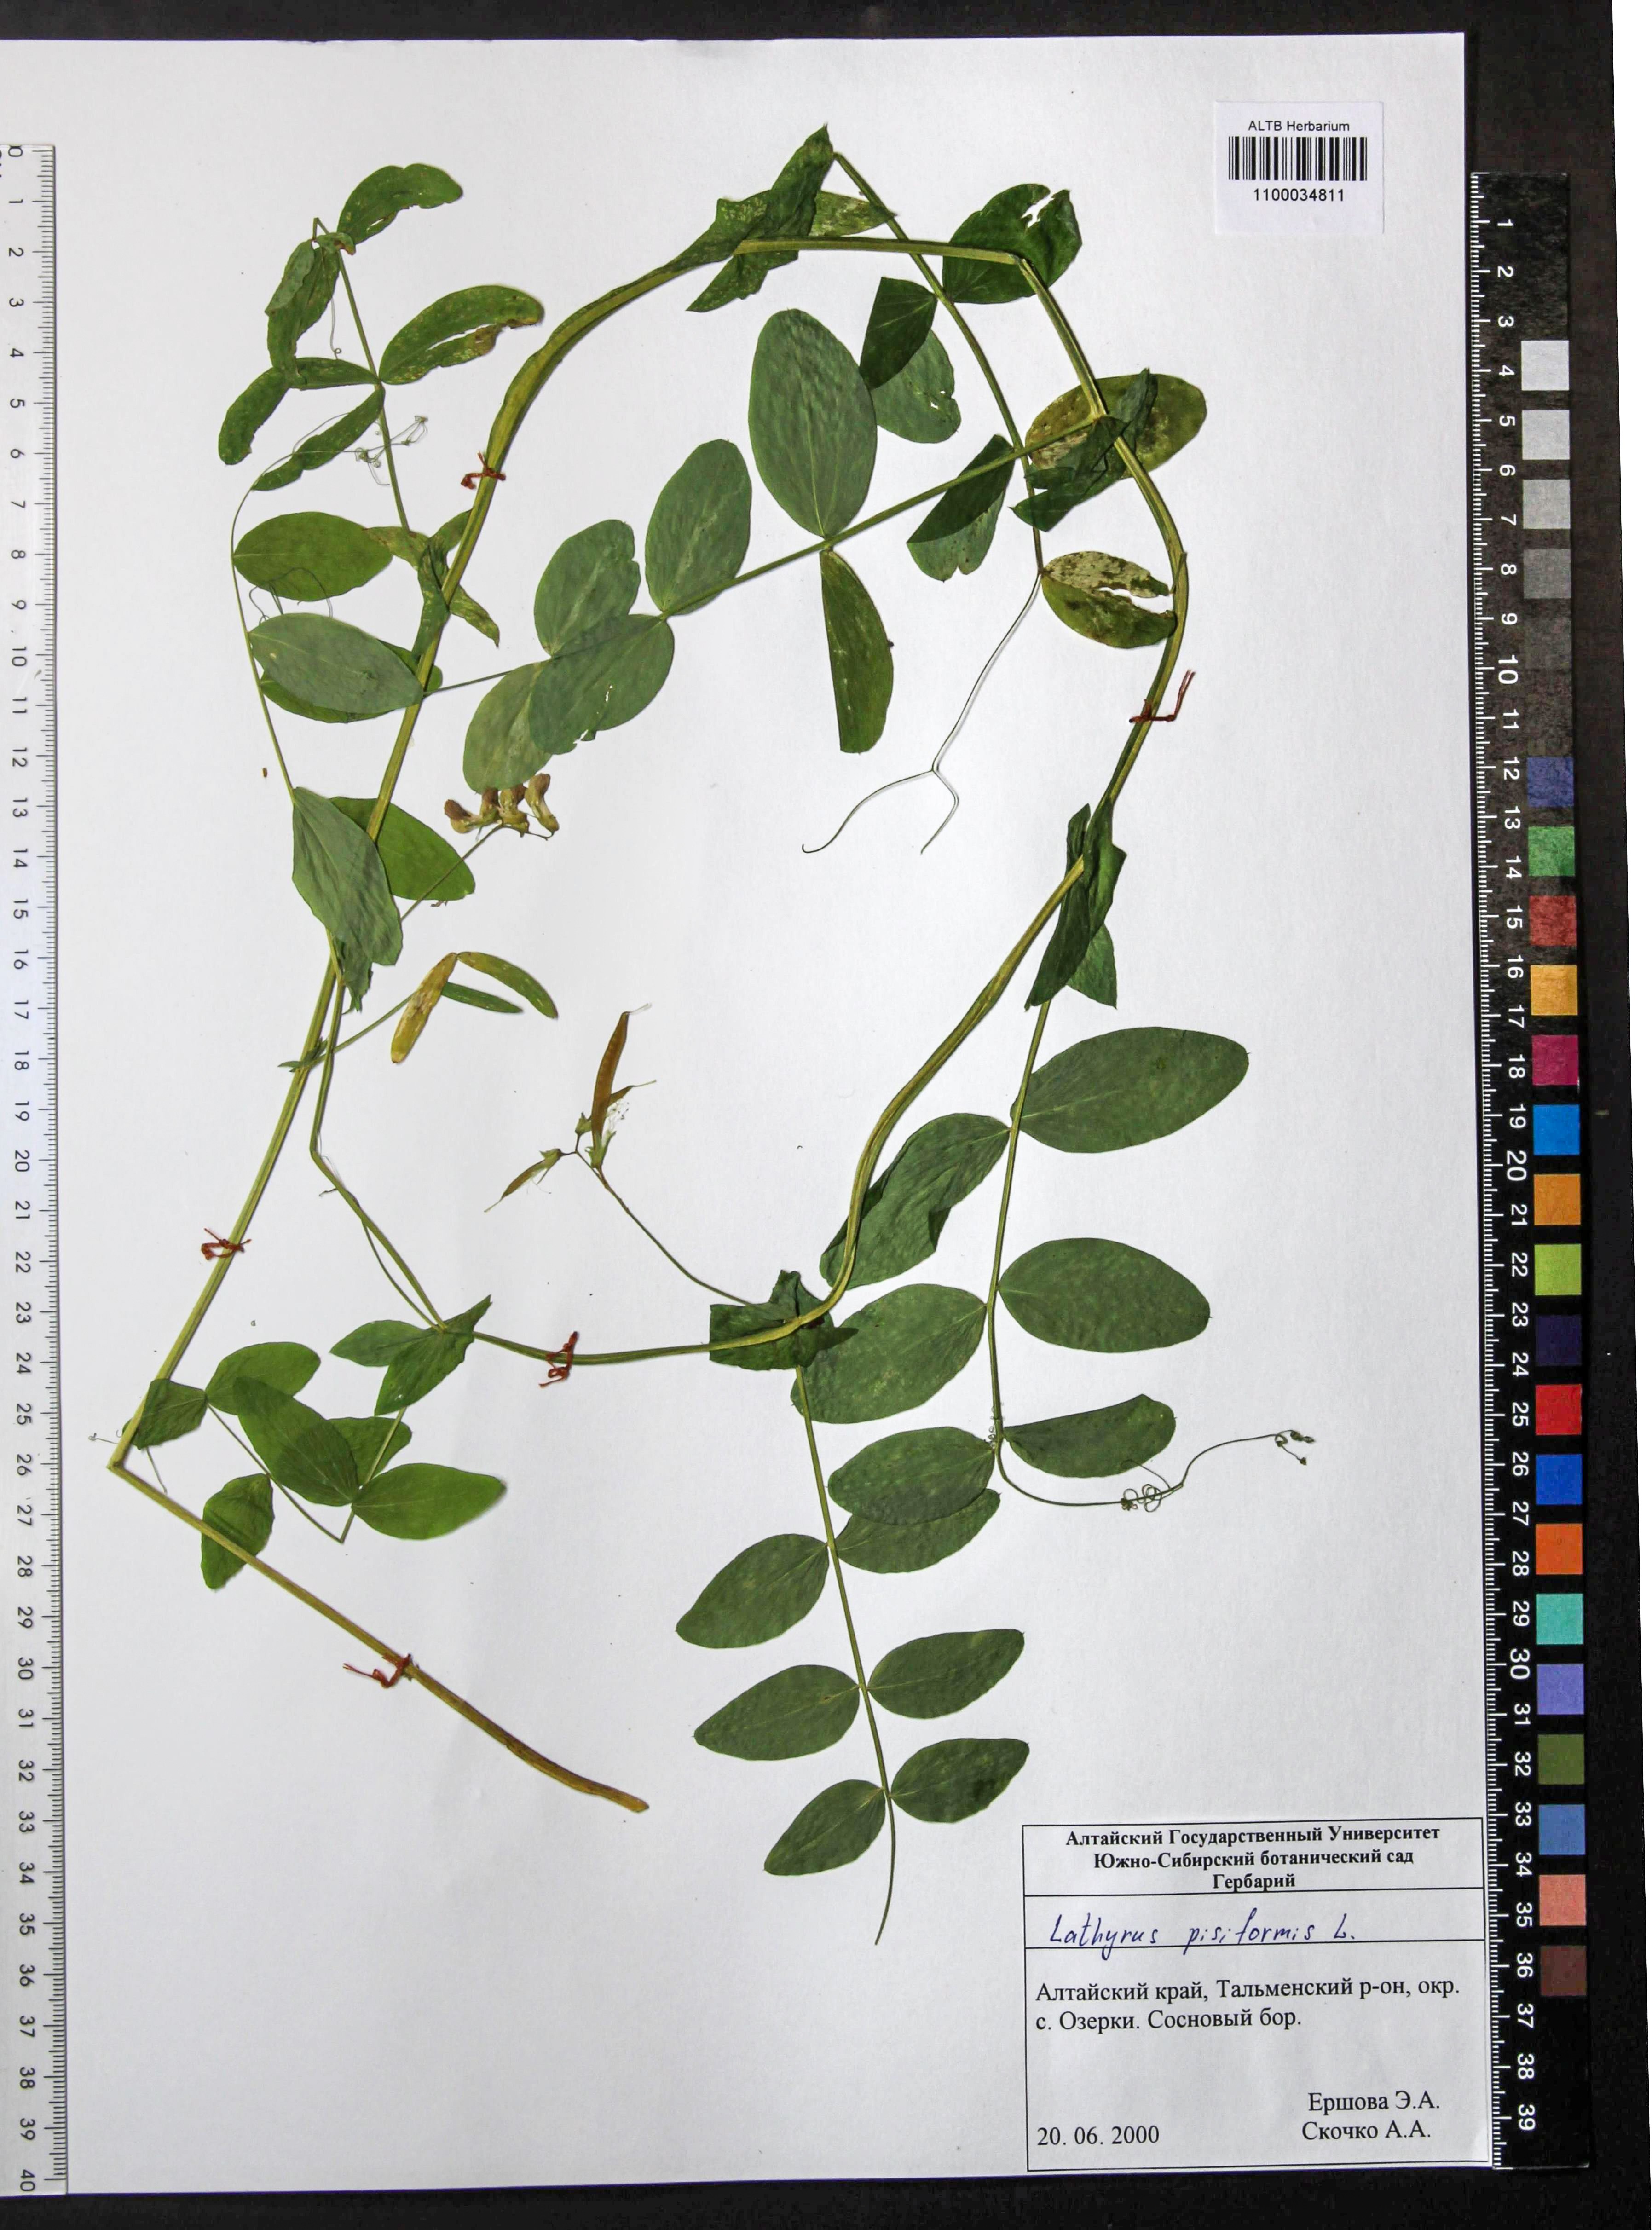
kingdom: Plantae
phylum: Tracheophyta
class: Magnoliopsida
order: Fabales
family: Fabaceae
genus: Lathyrus
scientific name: Lathyrus pisiformis
